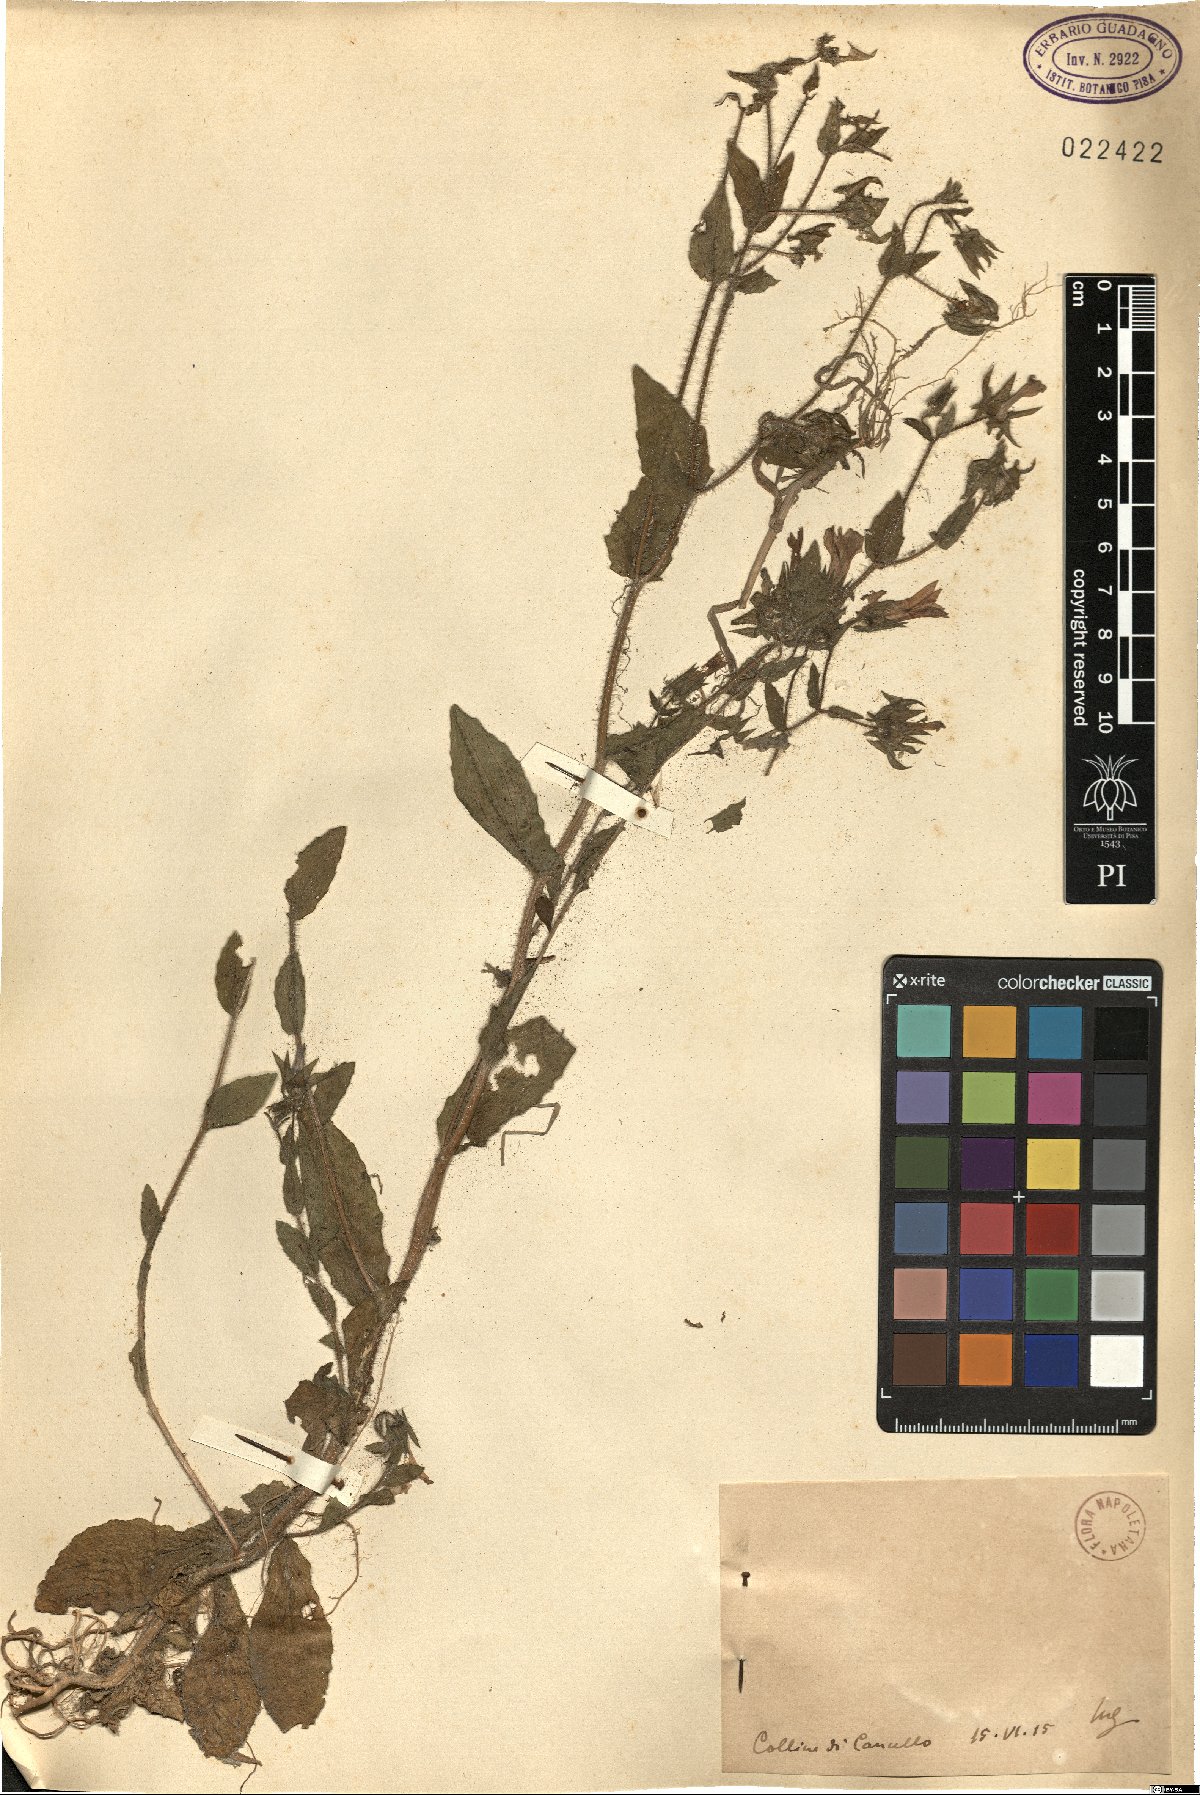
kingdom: Plantae
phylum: Tracheophyta
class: Magnoliopsida
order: Asterales
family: Campanulaceae
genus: Campanula
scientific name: Campanula
